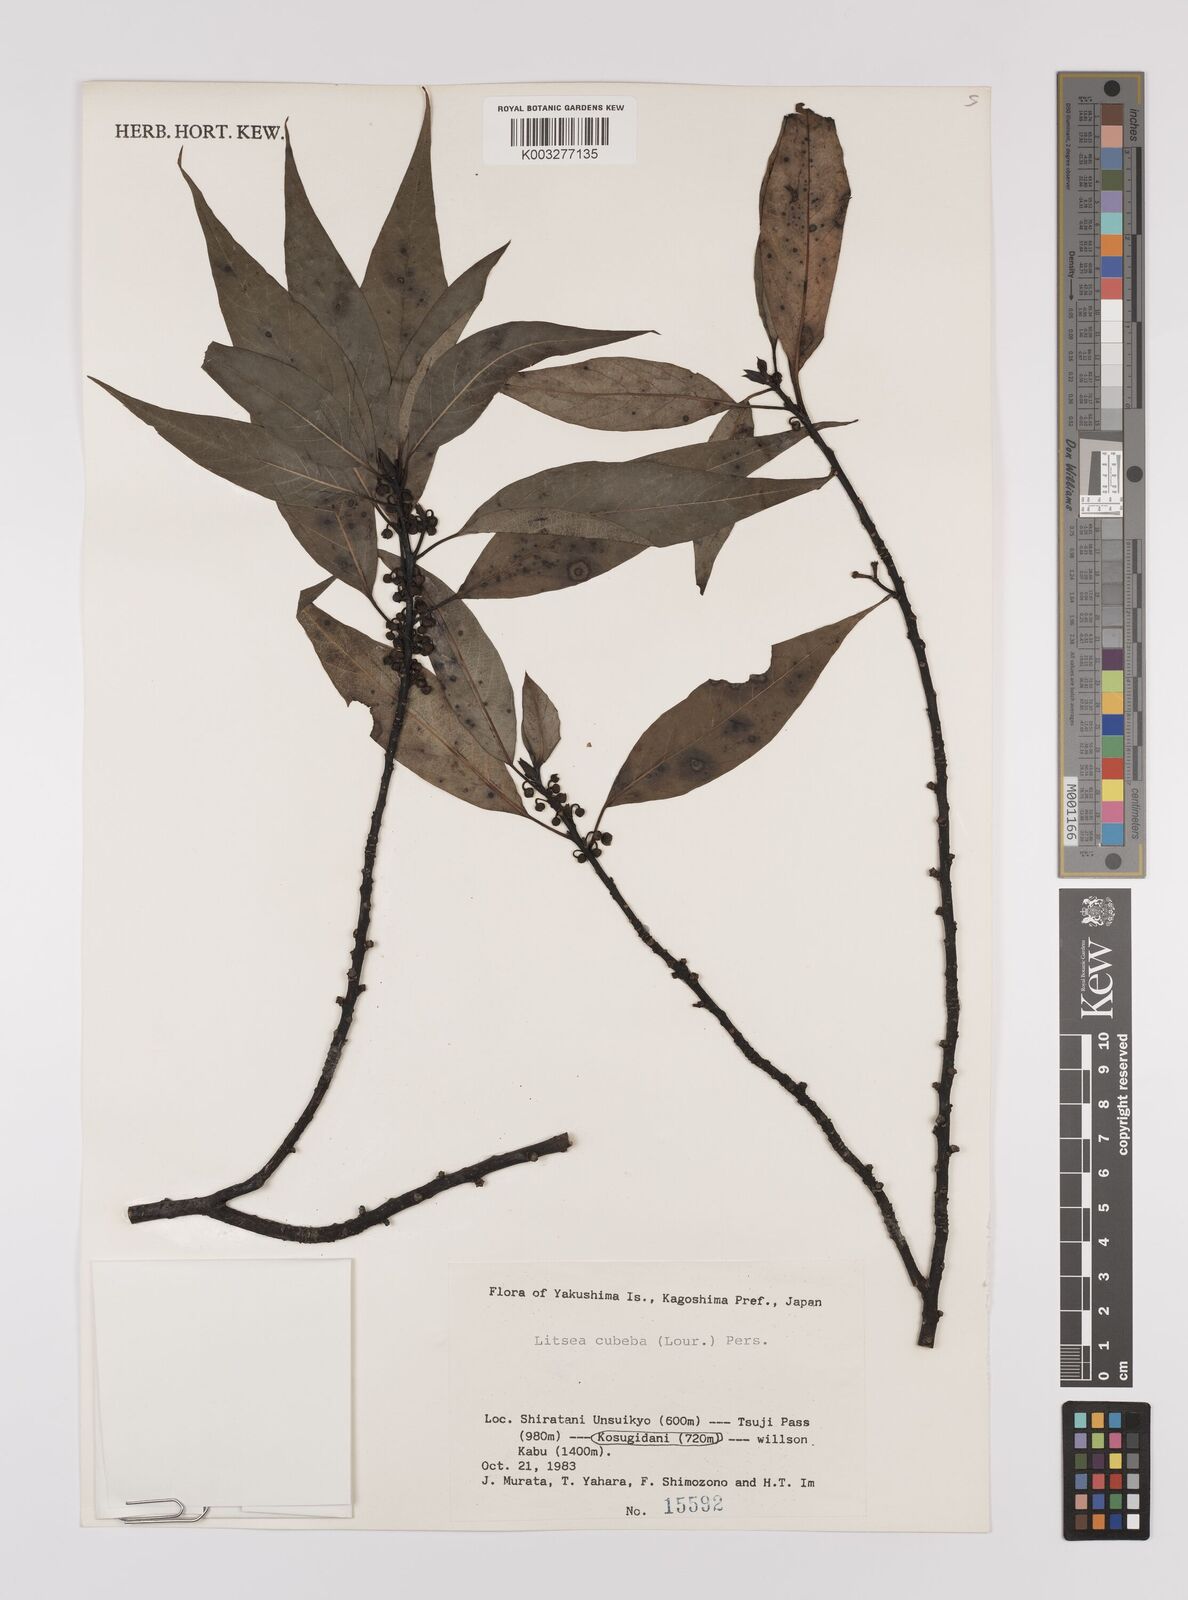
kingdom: Plantae
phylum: Tracheophyta
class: Magnoliopsida
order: Laurales
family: Lauraceae
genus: Litsea
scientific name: Litsea cubeba
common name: Mountain-pepper
